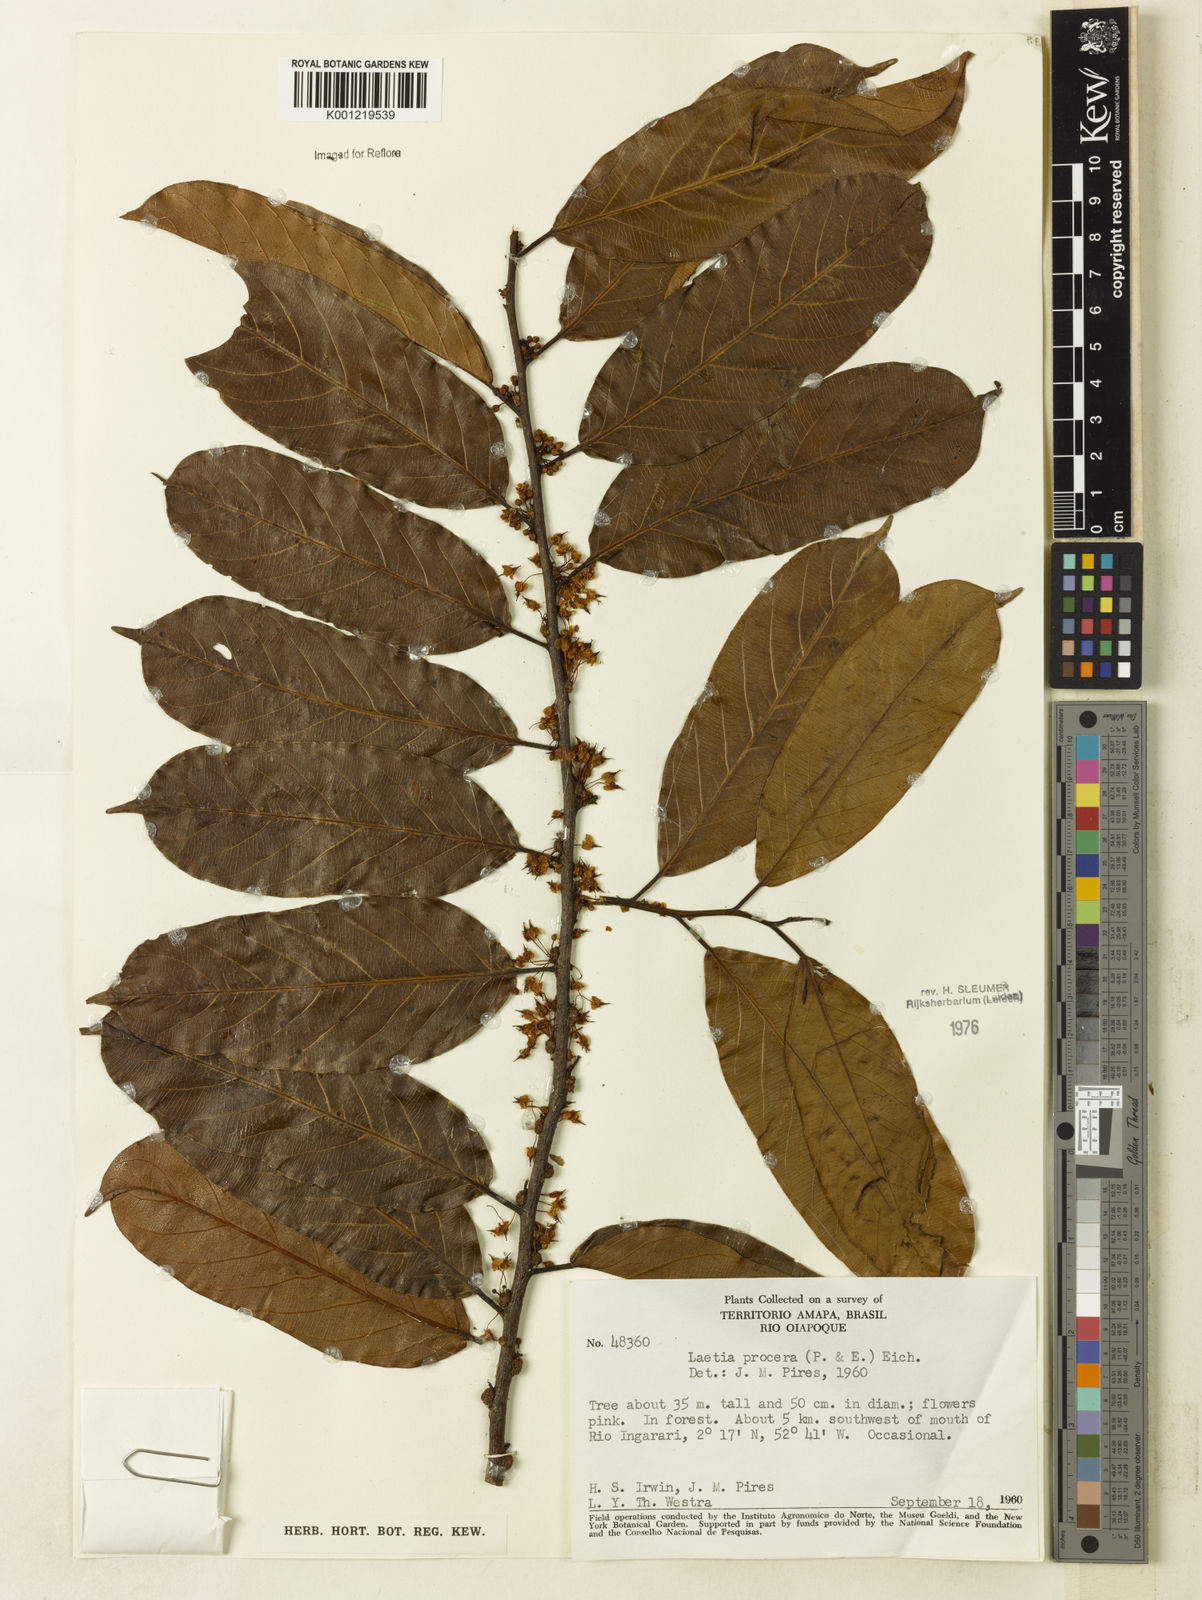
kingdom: Plantae
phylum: Tracheophyta
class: Magnoliopsida
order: Malpighiales
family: Salicaceae
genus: Casearia
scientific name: Casearia bicolor
